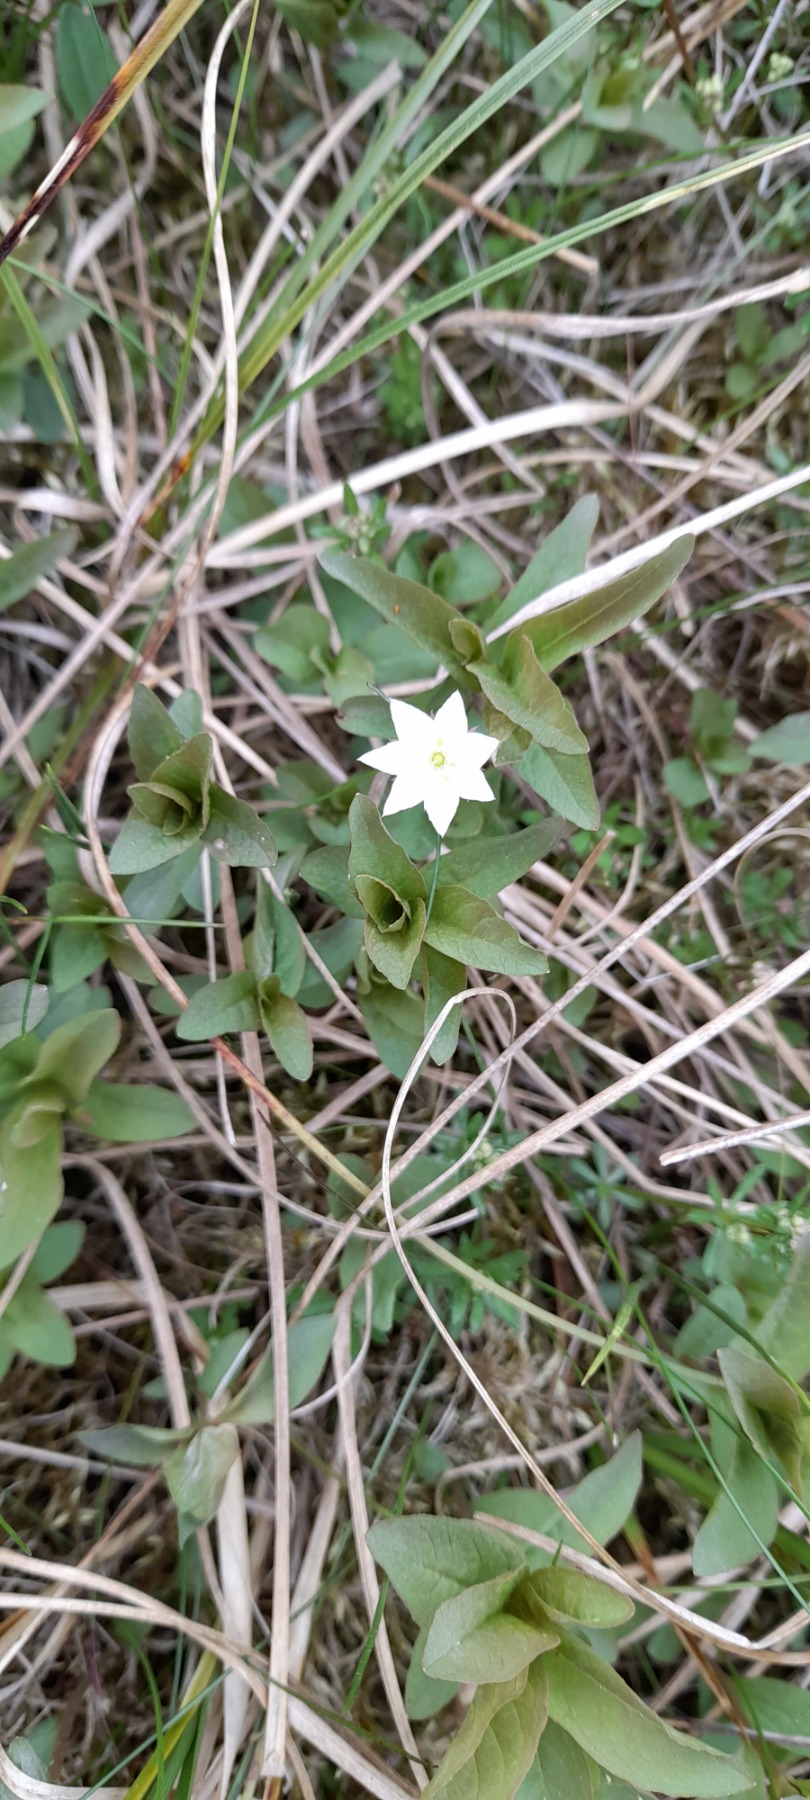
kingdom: Plantae
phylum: Tracheophyta
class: Magnoliopsida
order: Ericales
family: Primulaceae
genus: Lysimachia
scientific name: Lysimachia europaea
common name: Skovstjerne
